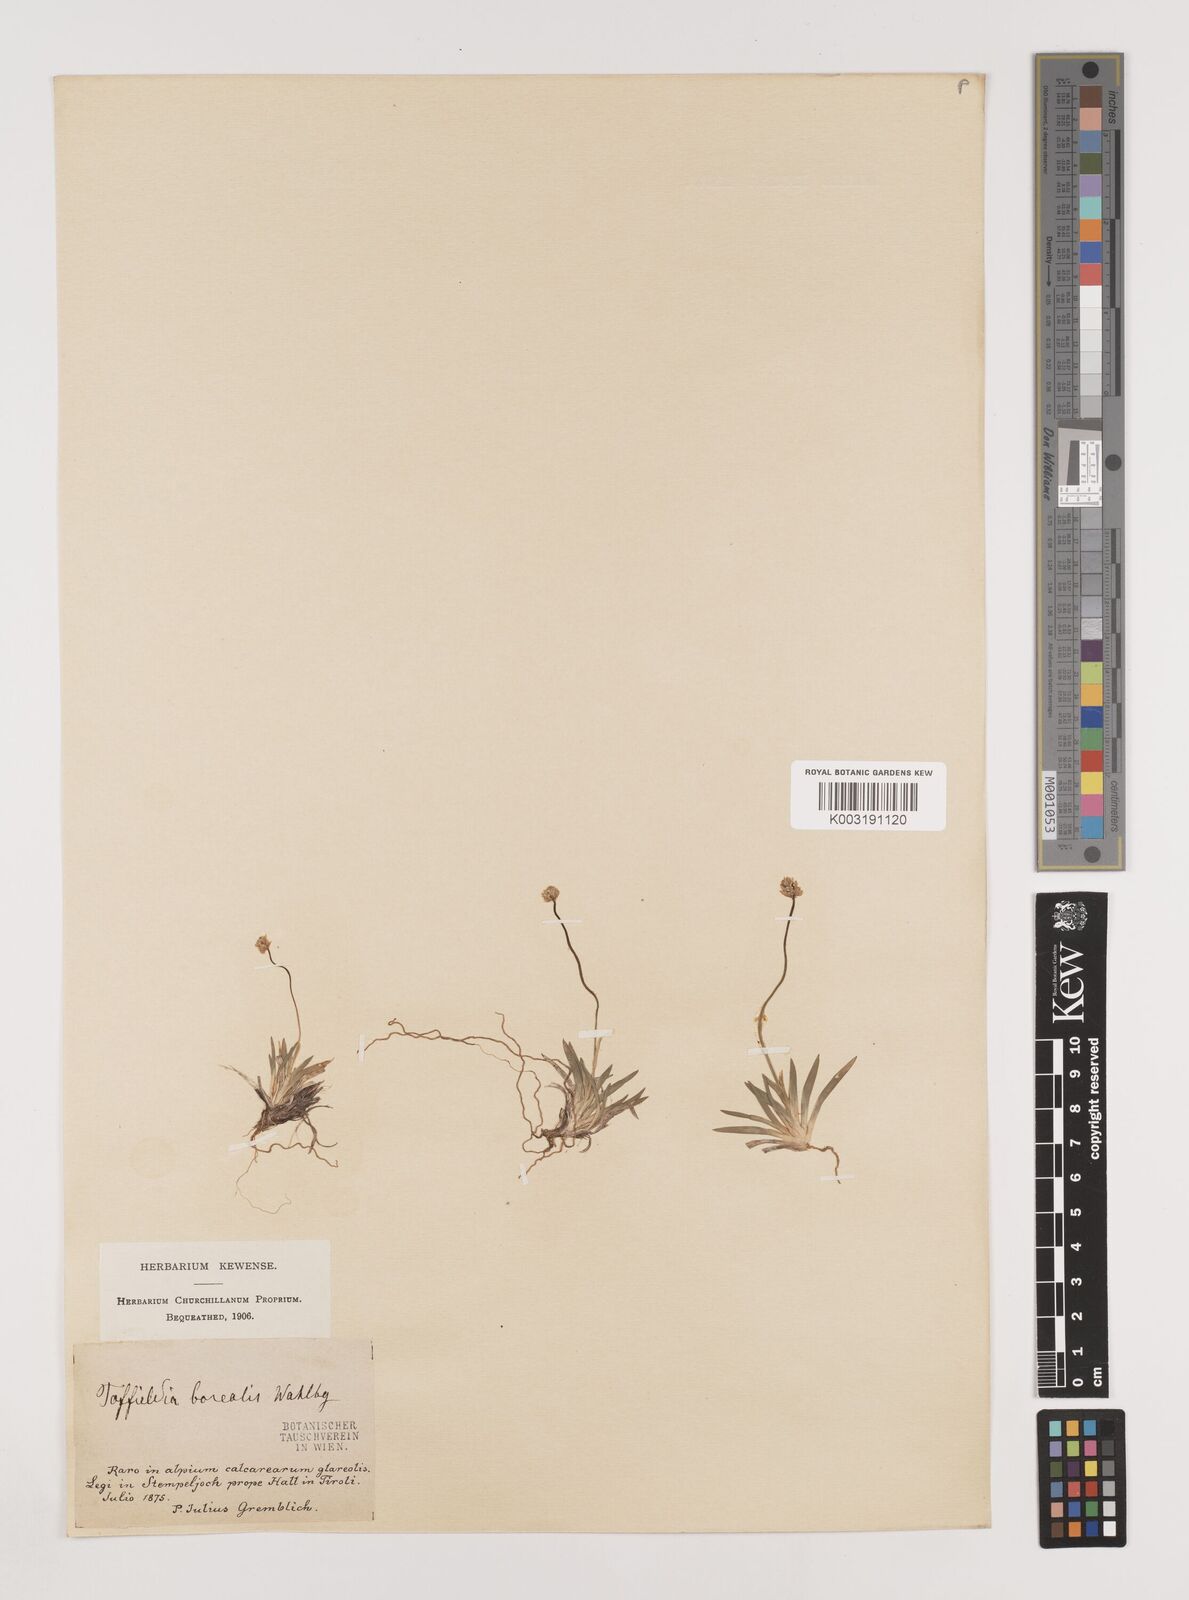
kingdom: Plantae
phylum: Tracheophyta
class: Liliopsida
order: Alismatales
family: Tofieldiaceae
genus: Tofieldia
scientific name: Tofieldia pusilla
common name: Scottish false asphodel
